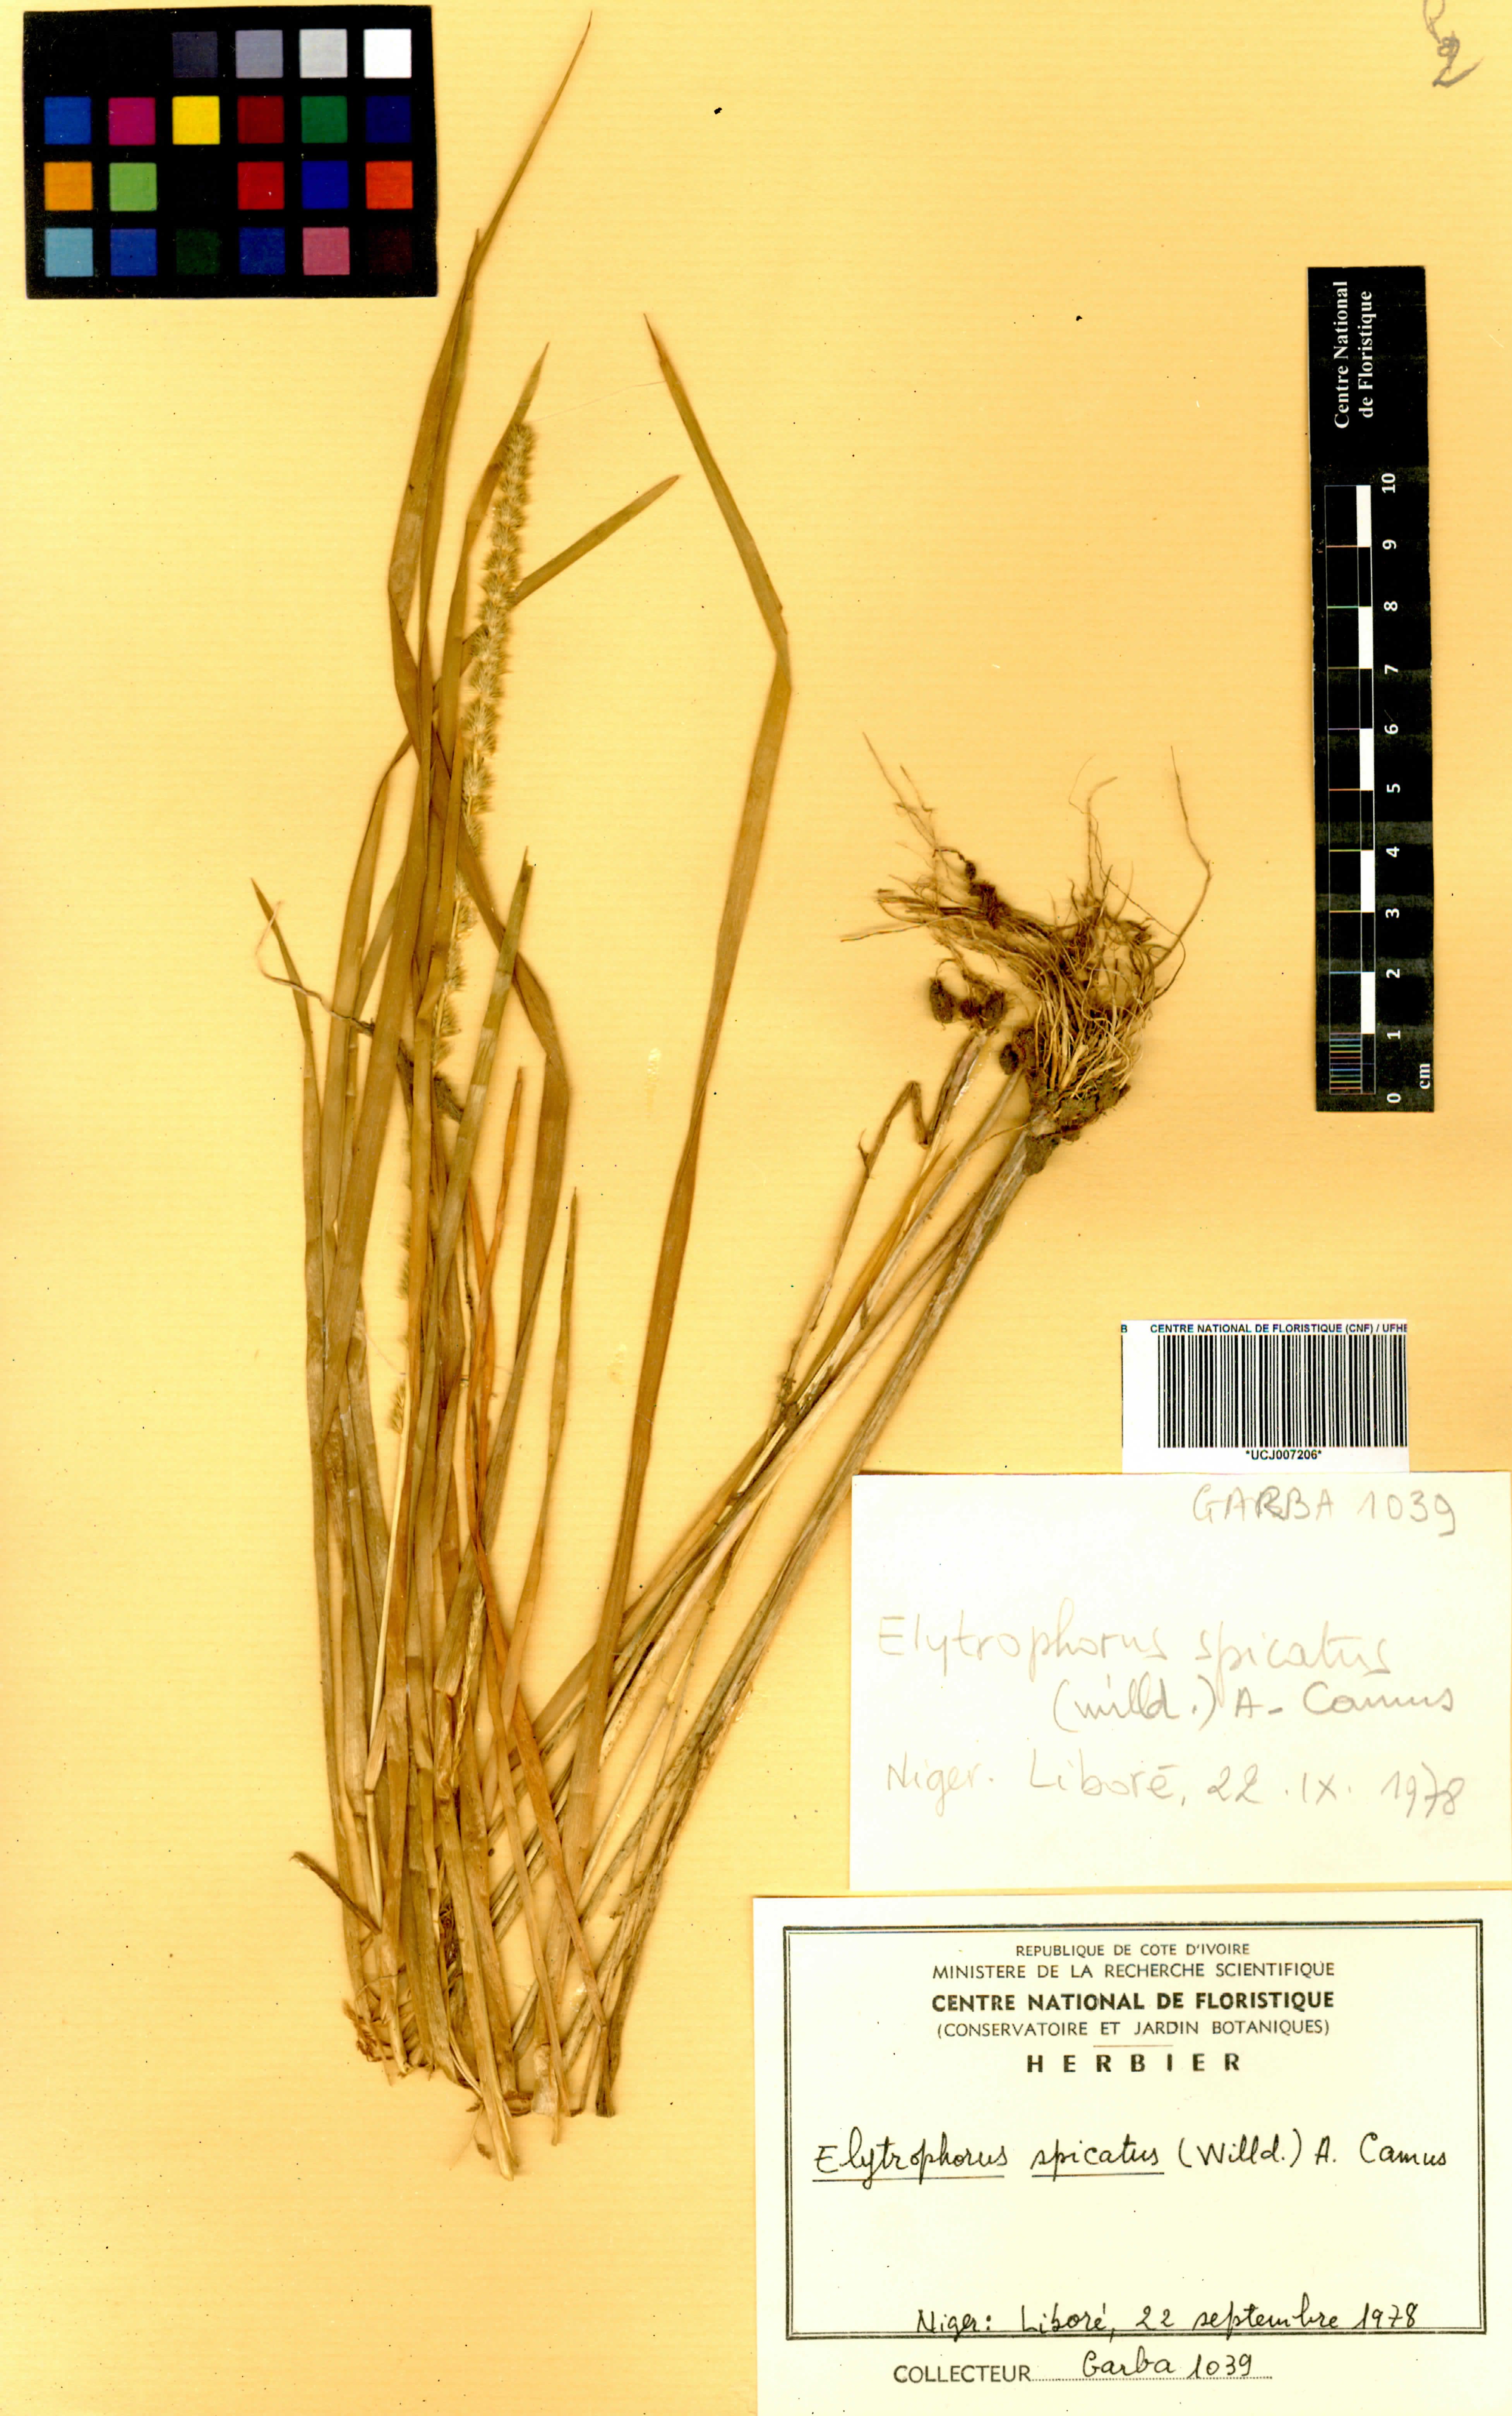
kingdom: Plantae
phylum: Tracheophyta
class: Liliopsida
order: Poales
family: Poaceae
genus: Elytrophorus
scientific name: Elytrophorus spicatus
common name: Spike grass
